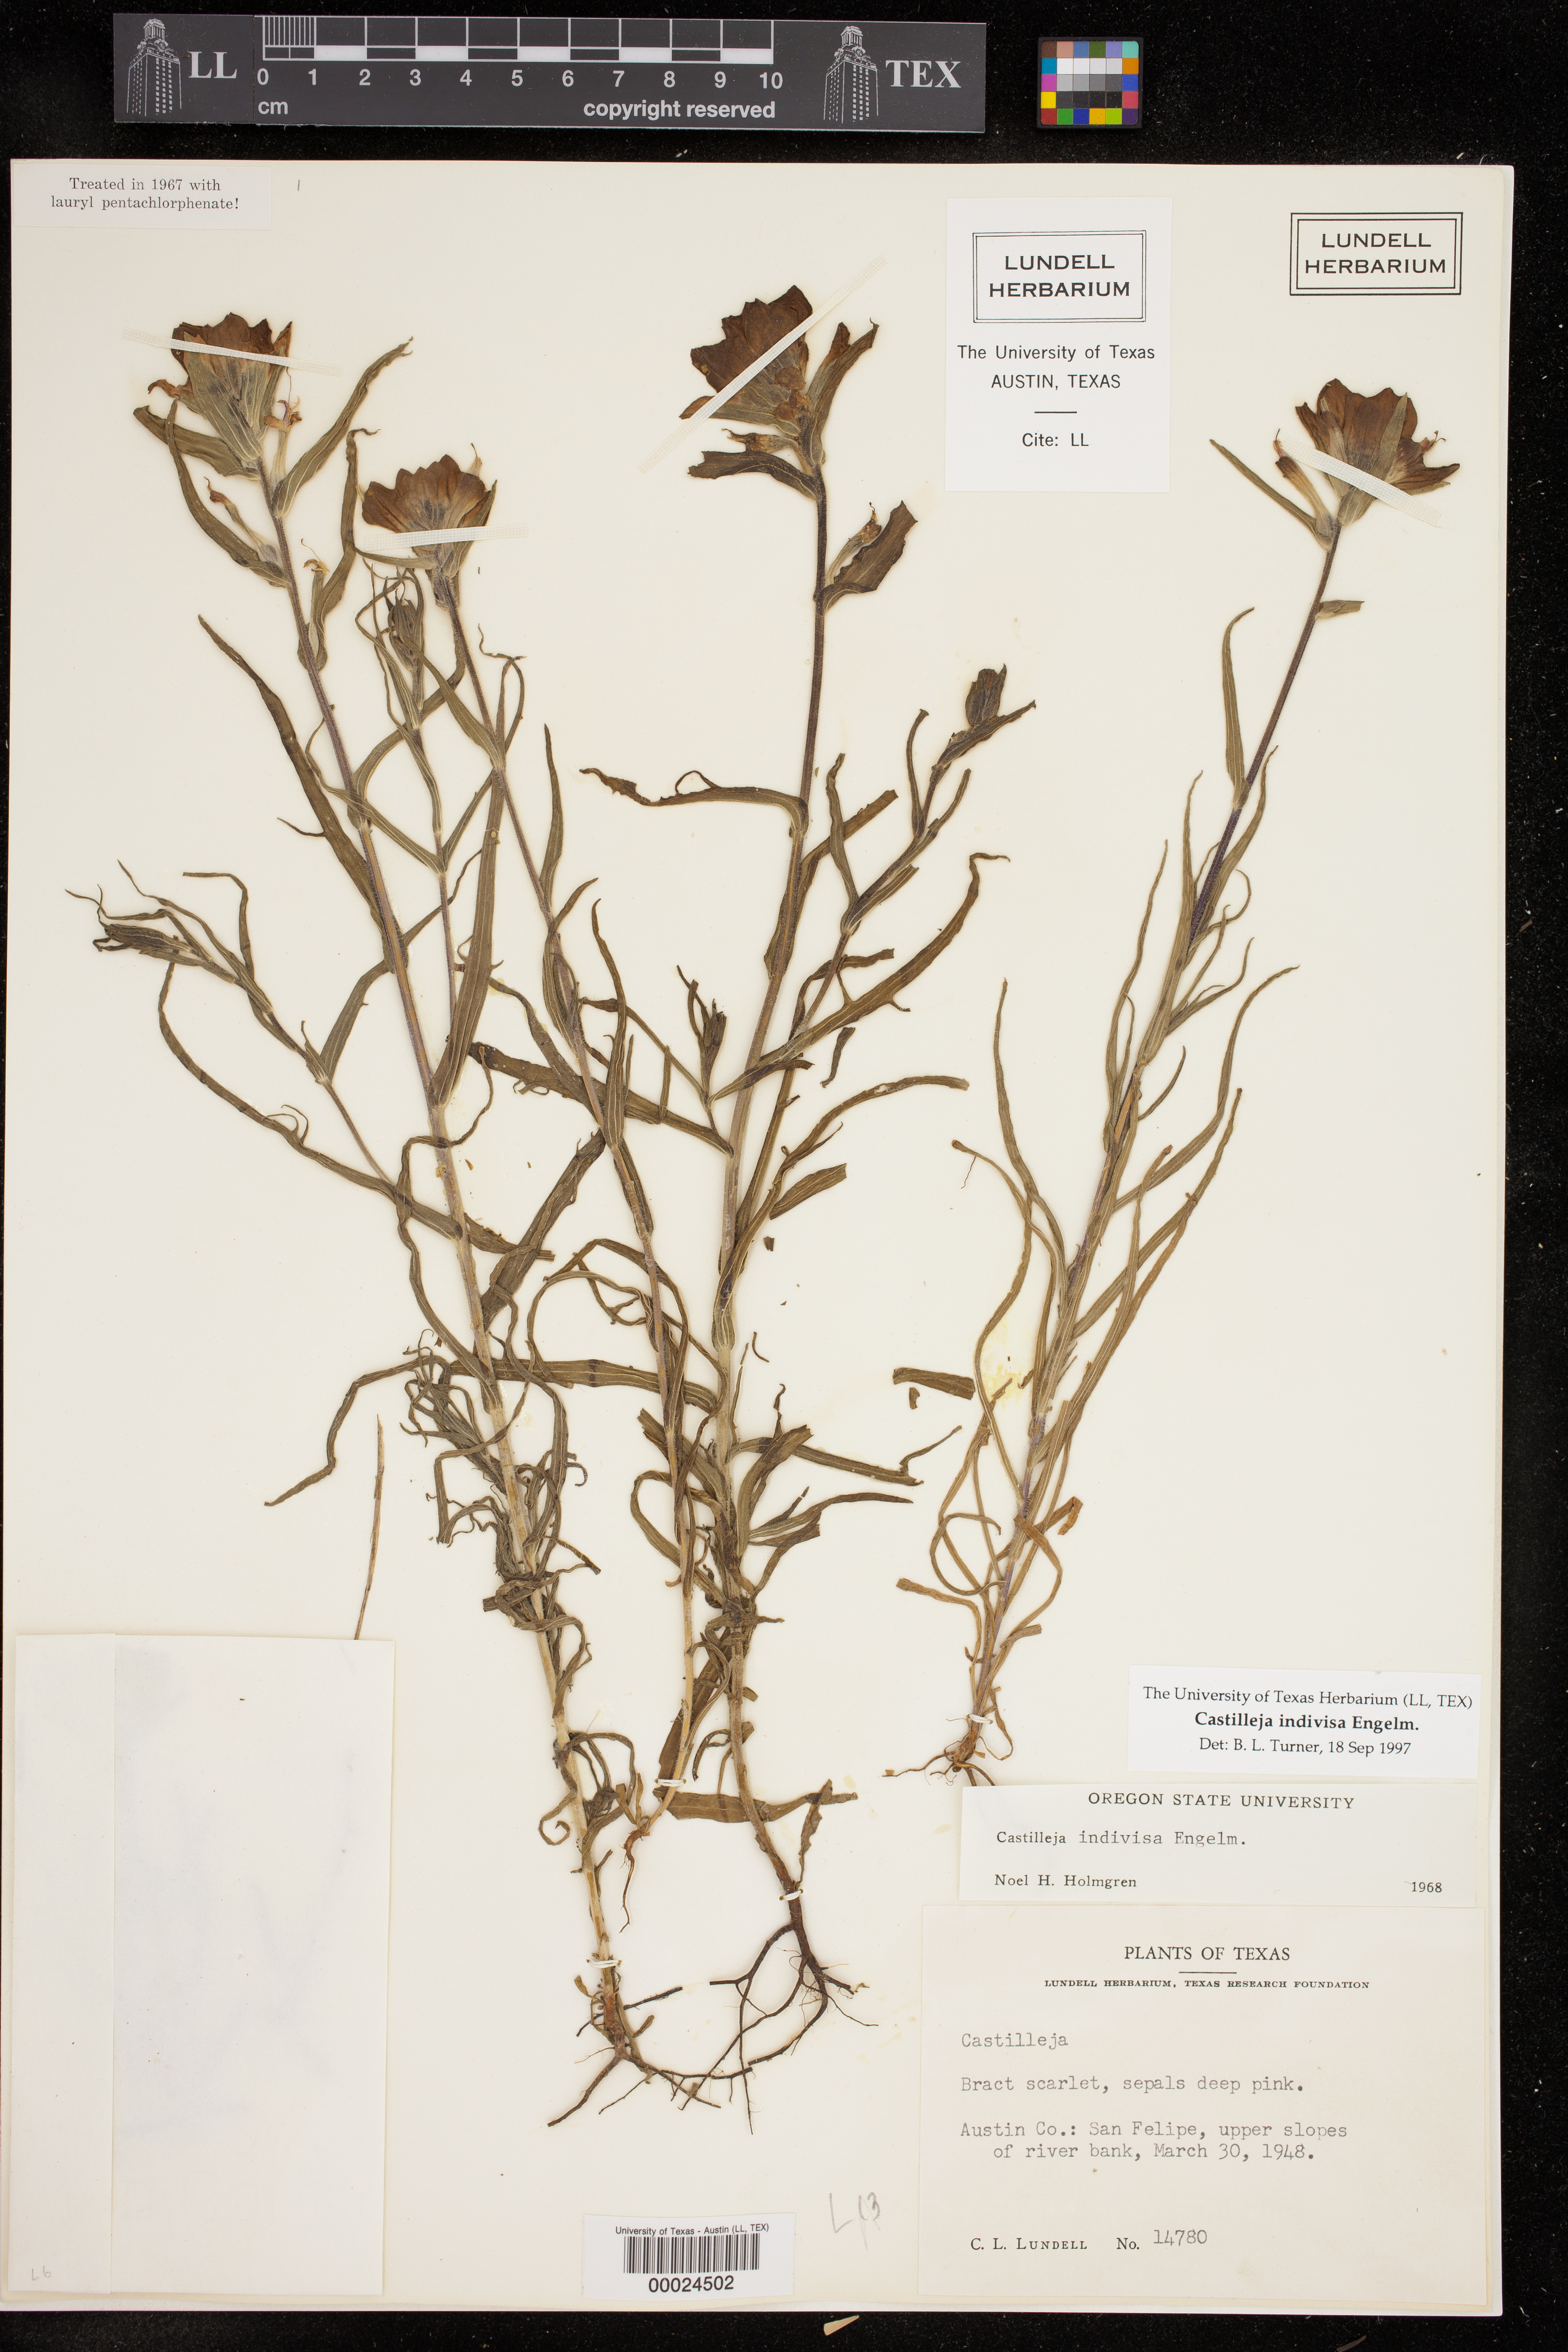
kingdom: Plantae
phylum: Tracheophyta
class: Magnoliopsida
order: Lamiales
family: Orobanchaceae
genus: Castilleja
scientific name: Castilleja indivisa
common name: Texas paintbrush
